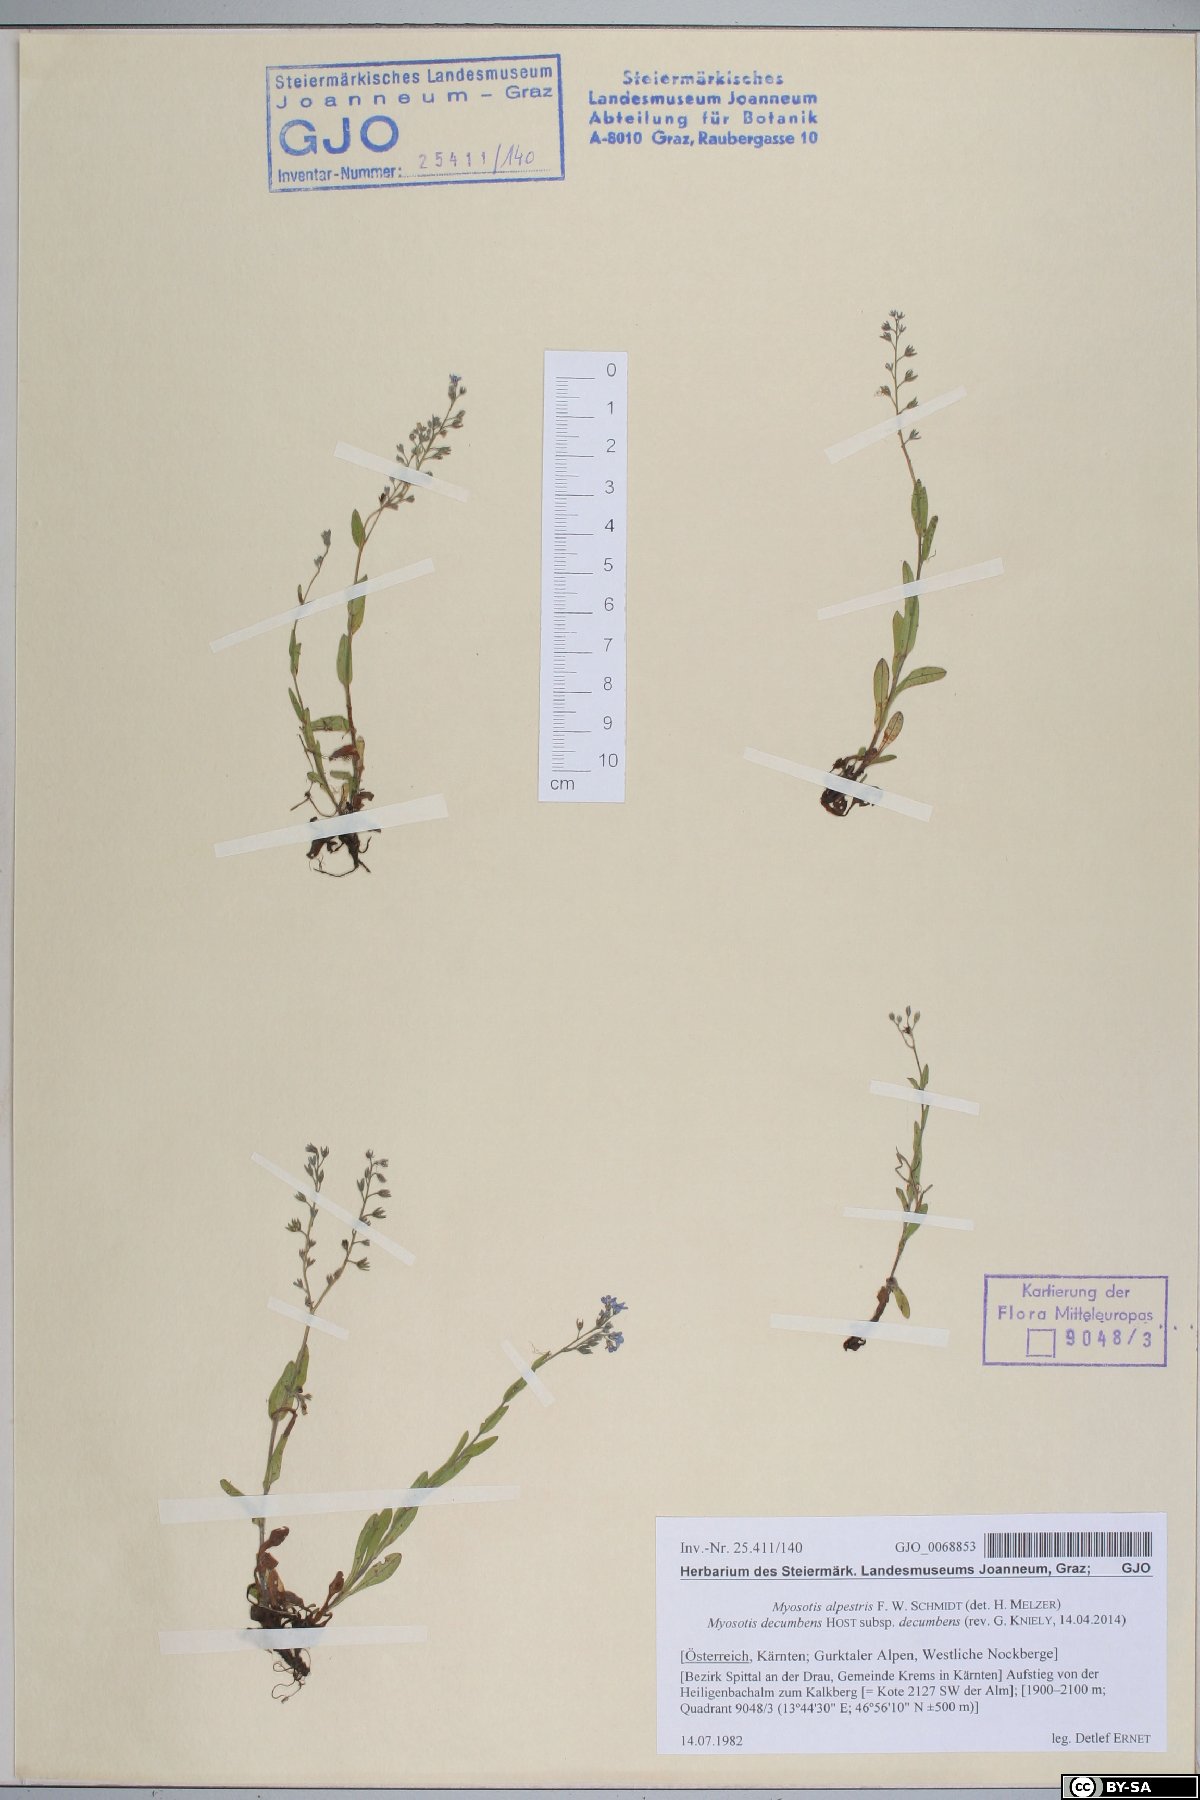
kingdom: Plantae
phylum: Tracheophyta
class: Magnoliopsida
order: Boraginales
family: Boraginaceae
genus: Myosotis
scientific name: Myosotis decumbens
